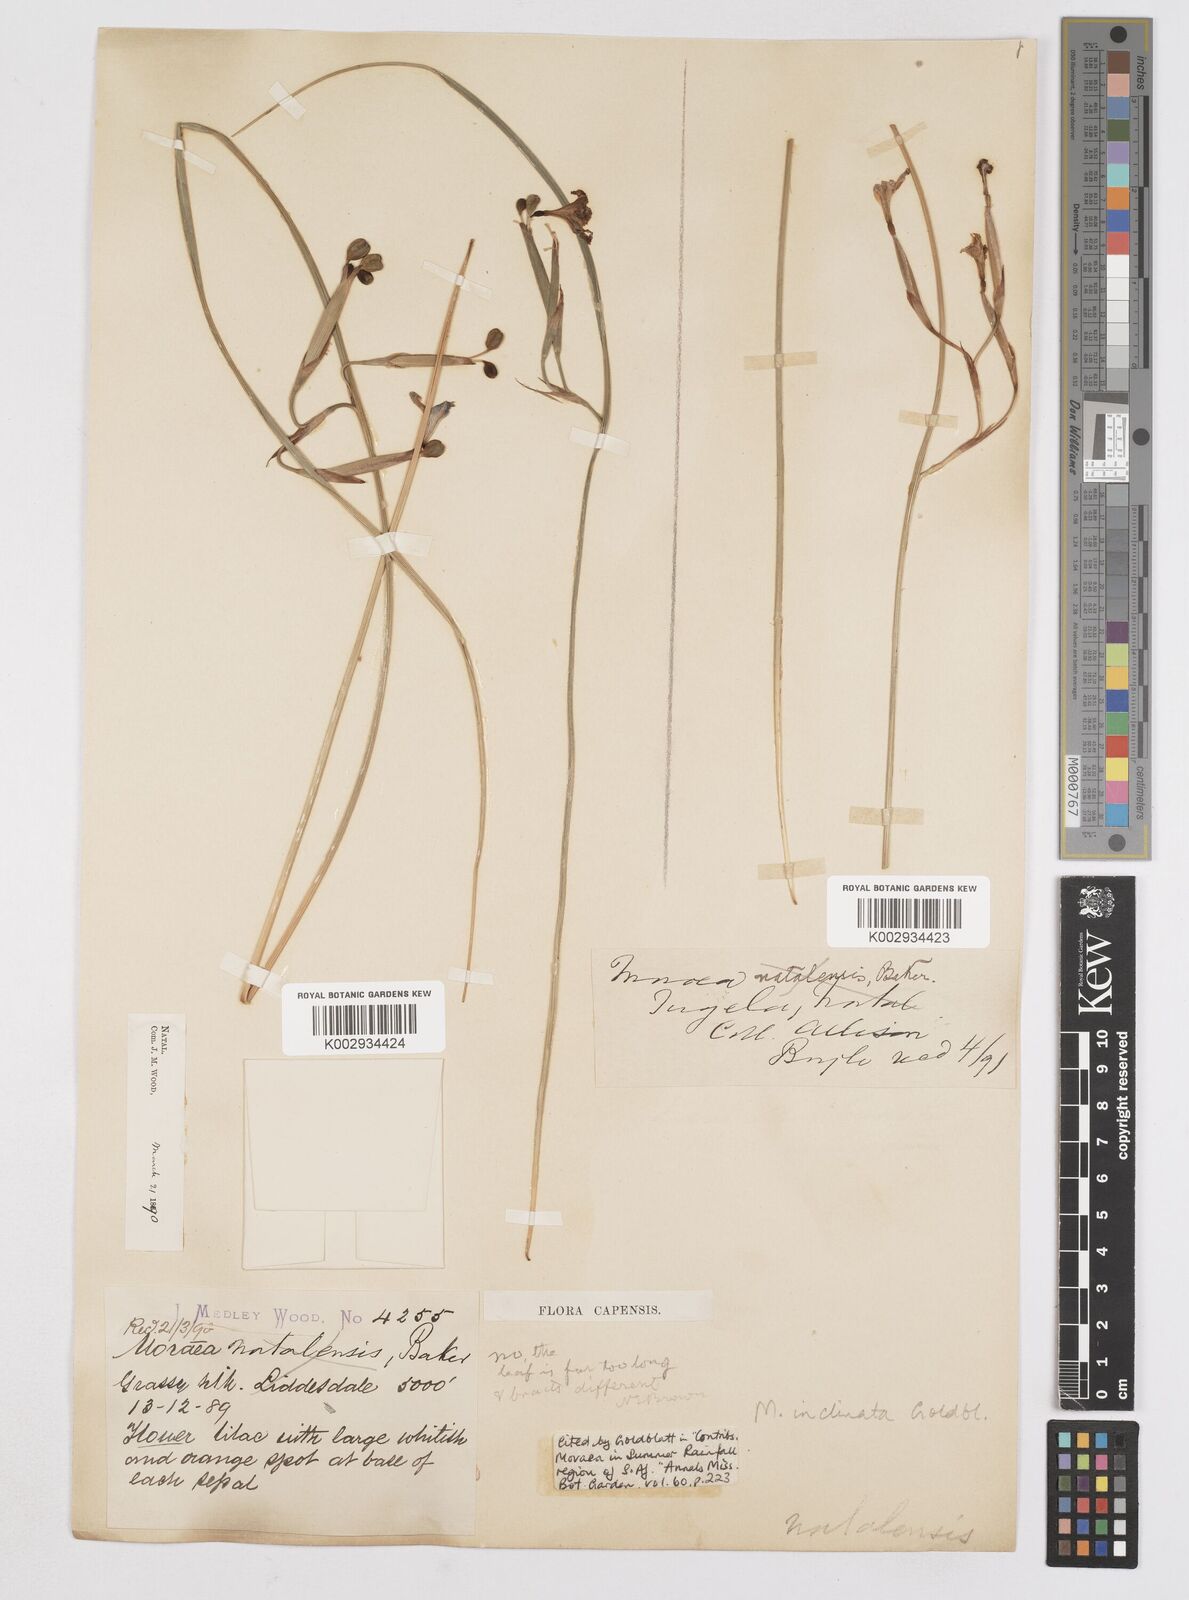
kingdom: Plantae
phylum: Tracheophyta
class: Liliopsida
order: Asparagales
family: Iridaceae
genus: Moraea
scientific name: Moraea inclinata
